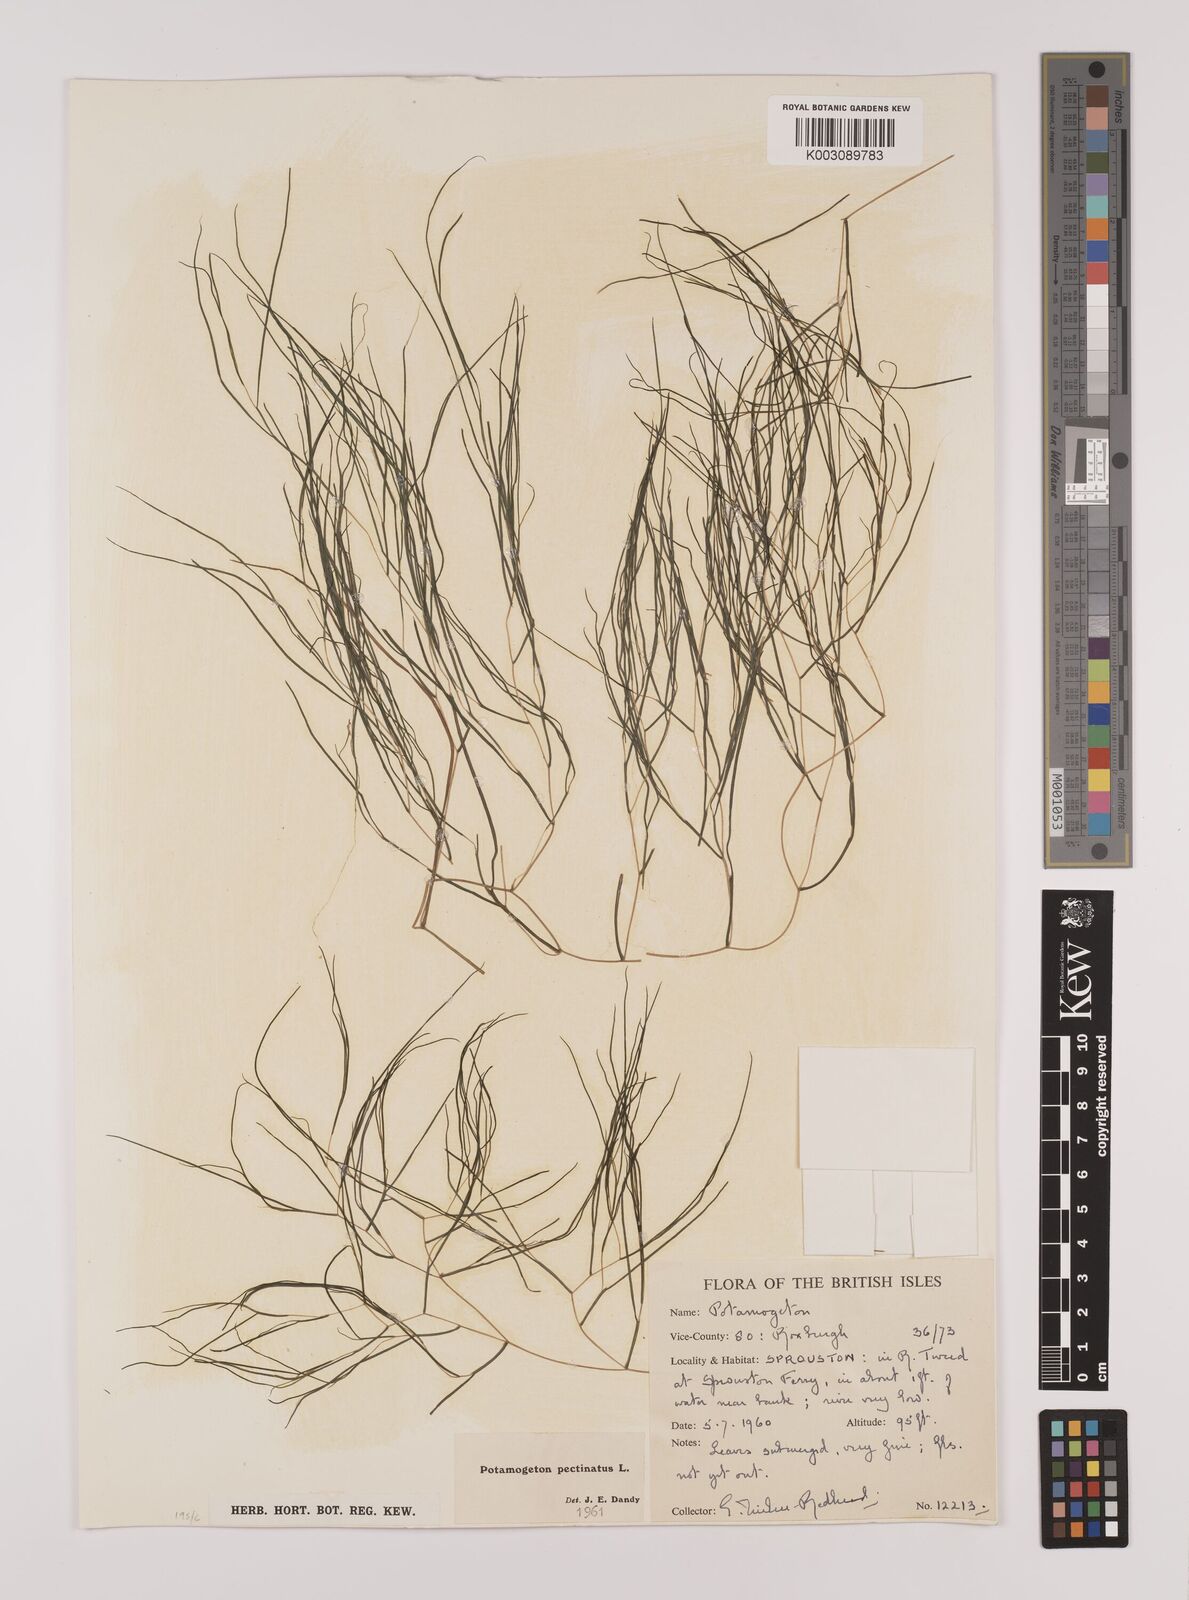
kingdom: Plantae
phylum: Tracheophyta
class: Liliopsida
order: Alismatales
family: Potamogetonaceae
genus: Stuckenia
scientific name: Stuckenia pectinata
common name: Sago pondweed
